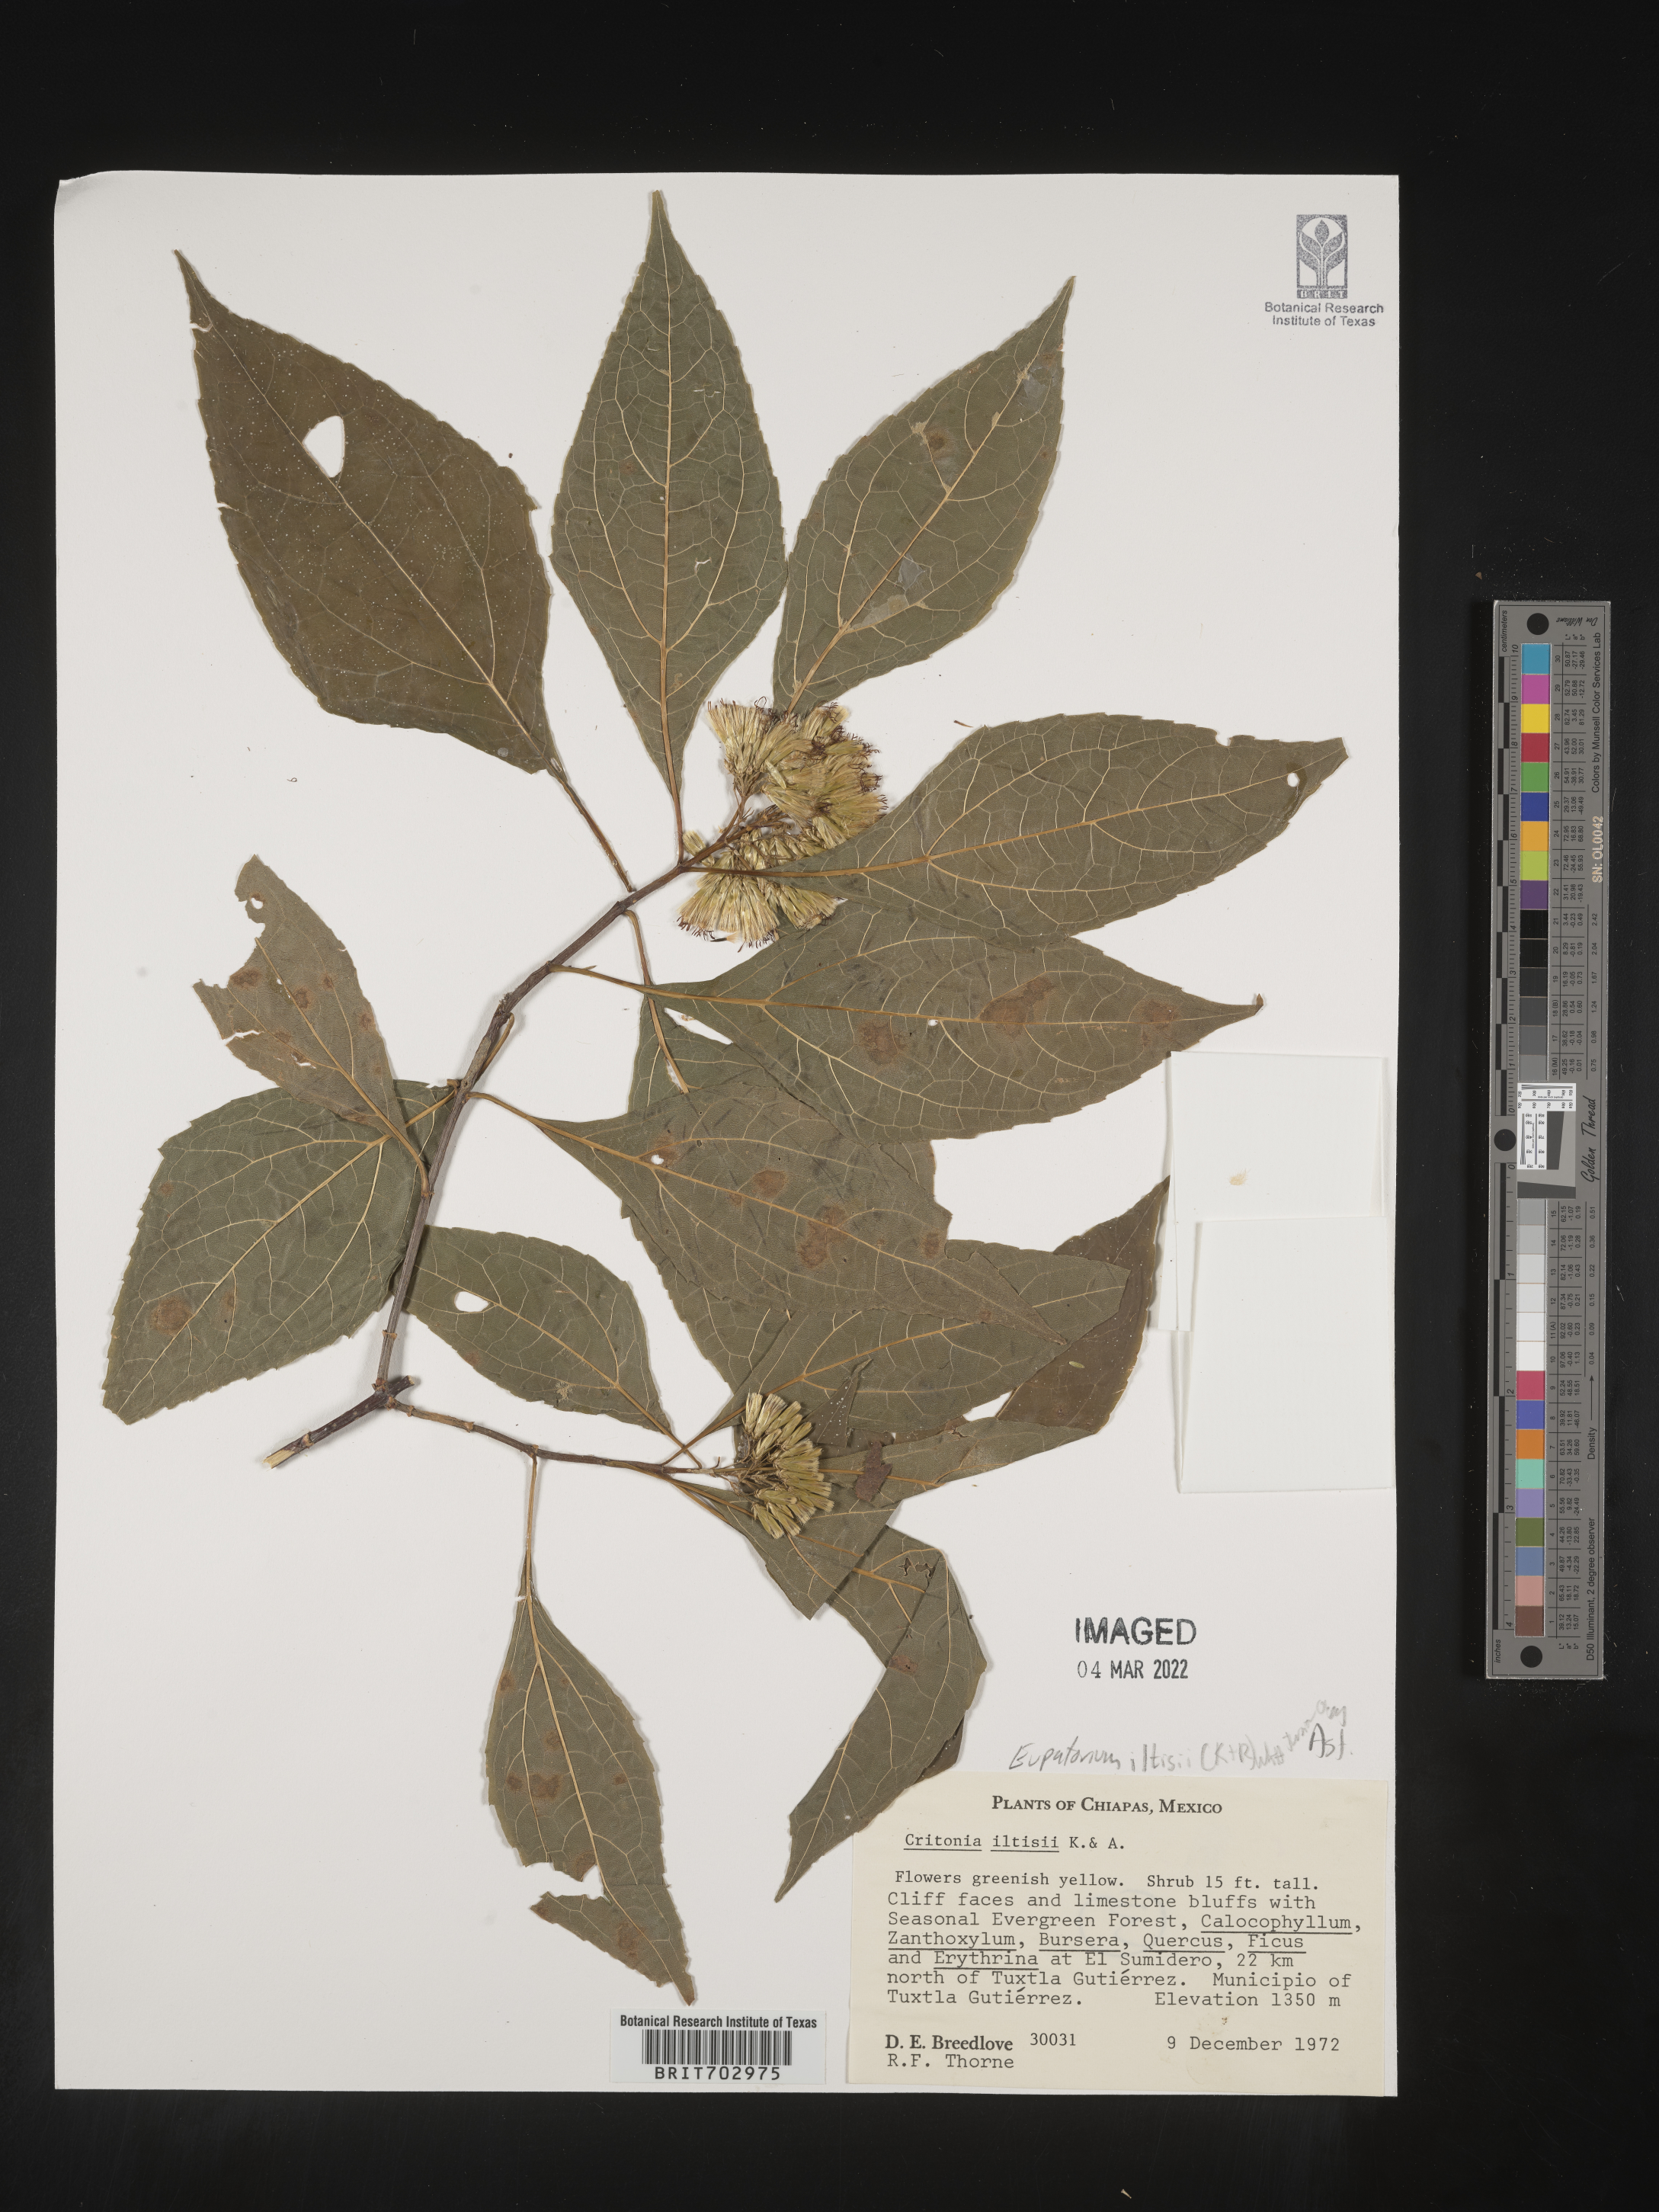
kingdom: Plantae
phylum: Tracheophyta
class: Magnoliopsida
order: Asterales
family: Asteraceae
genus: Eupatorium
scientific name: Eupatorium
